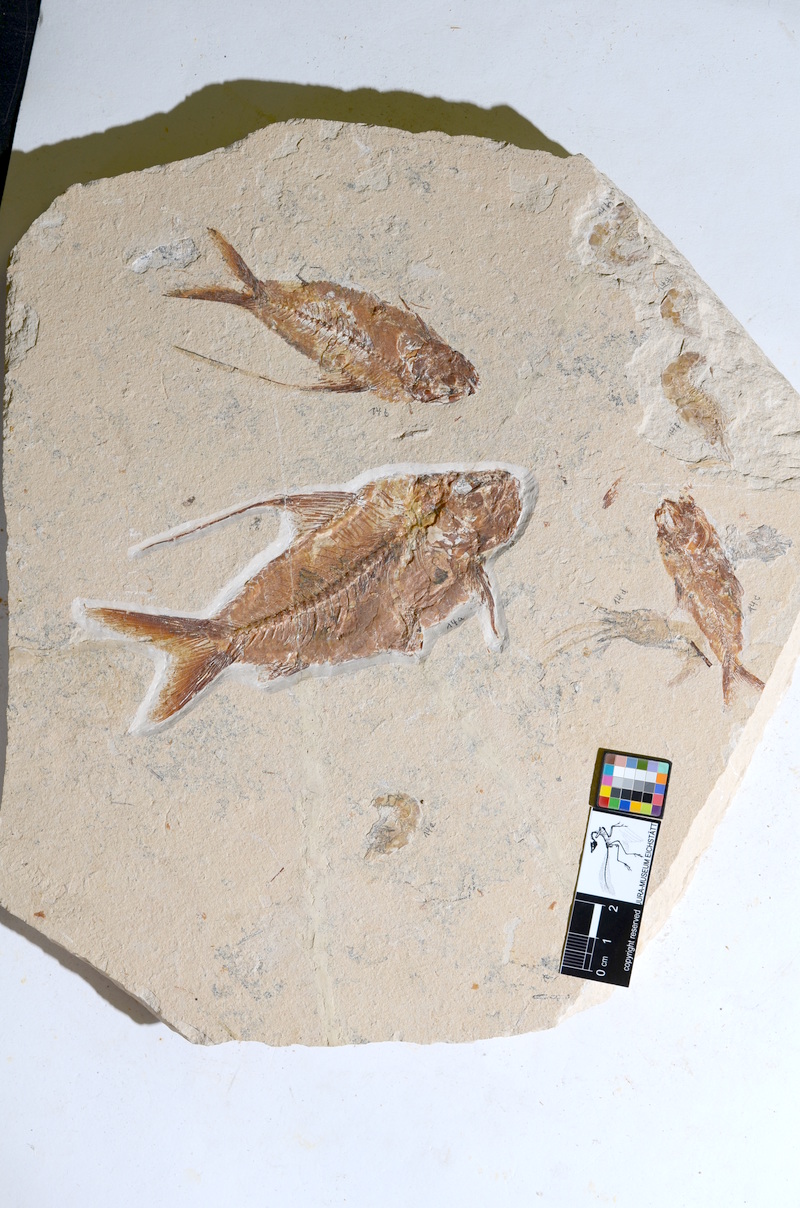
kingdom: Animalia
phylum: Chordata
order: Aulopiformes
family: Aulopidae
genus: Nematonotus
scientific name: Nematonotus Pseudoberyx longispina
